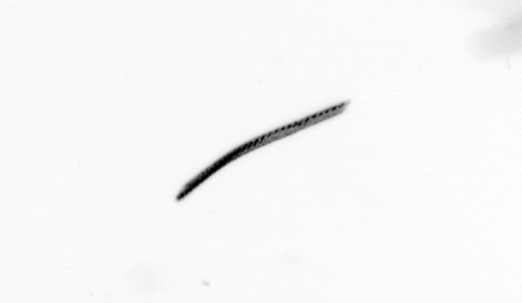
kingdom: Bacteria
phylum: Cyanobacteria
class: Cyanobacteriia
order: Cyanobacteriales
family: Microcoleaceae
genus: Trichodesmium
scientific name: Trichodesmium
